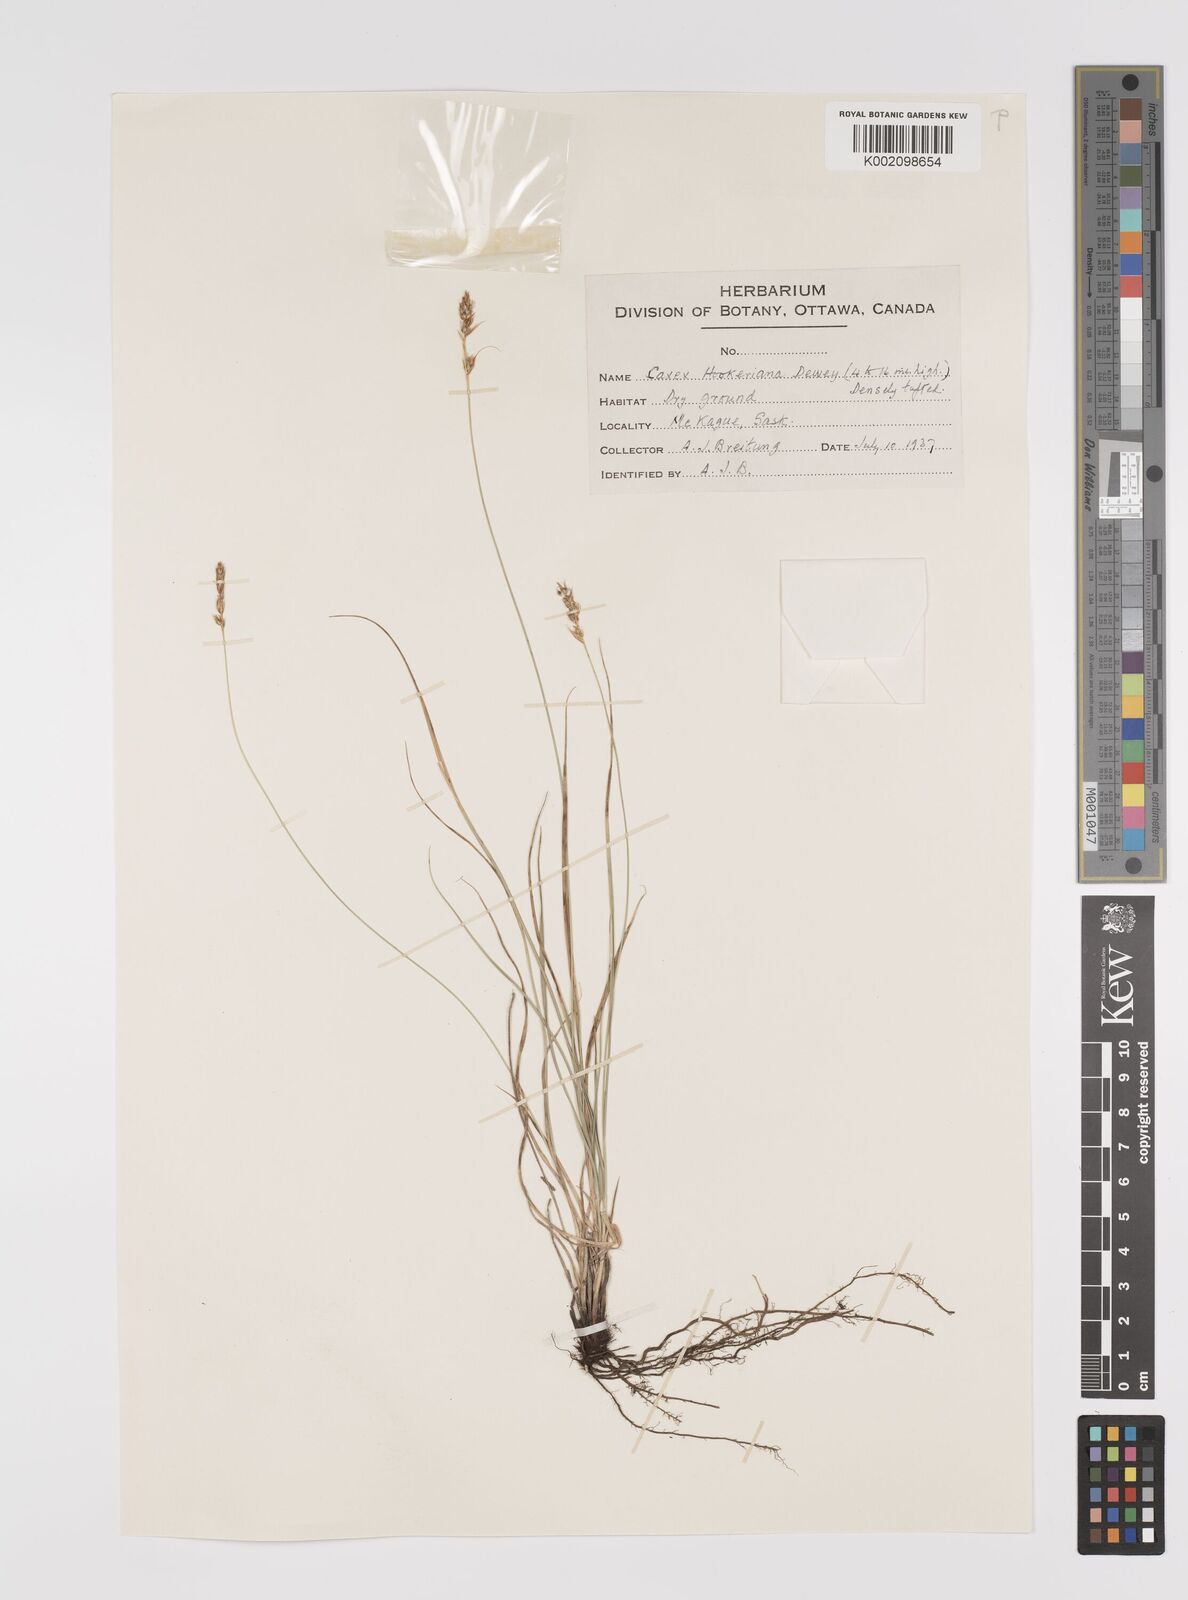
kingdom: Plantae
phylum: Tracheophyta
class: Liliopsida
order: Poales
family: Cyperaceae
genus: Carex
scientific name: Carex hookeriana
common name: Hooker's sedge
